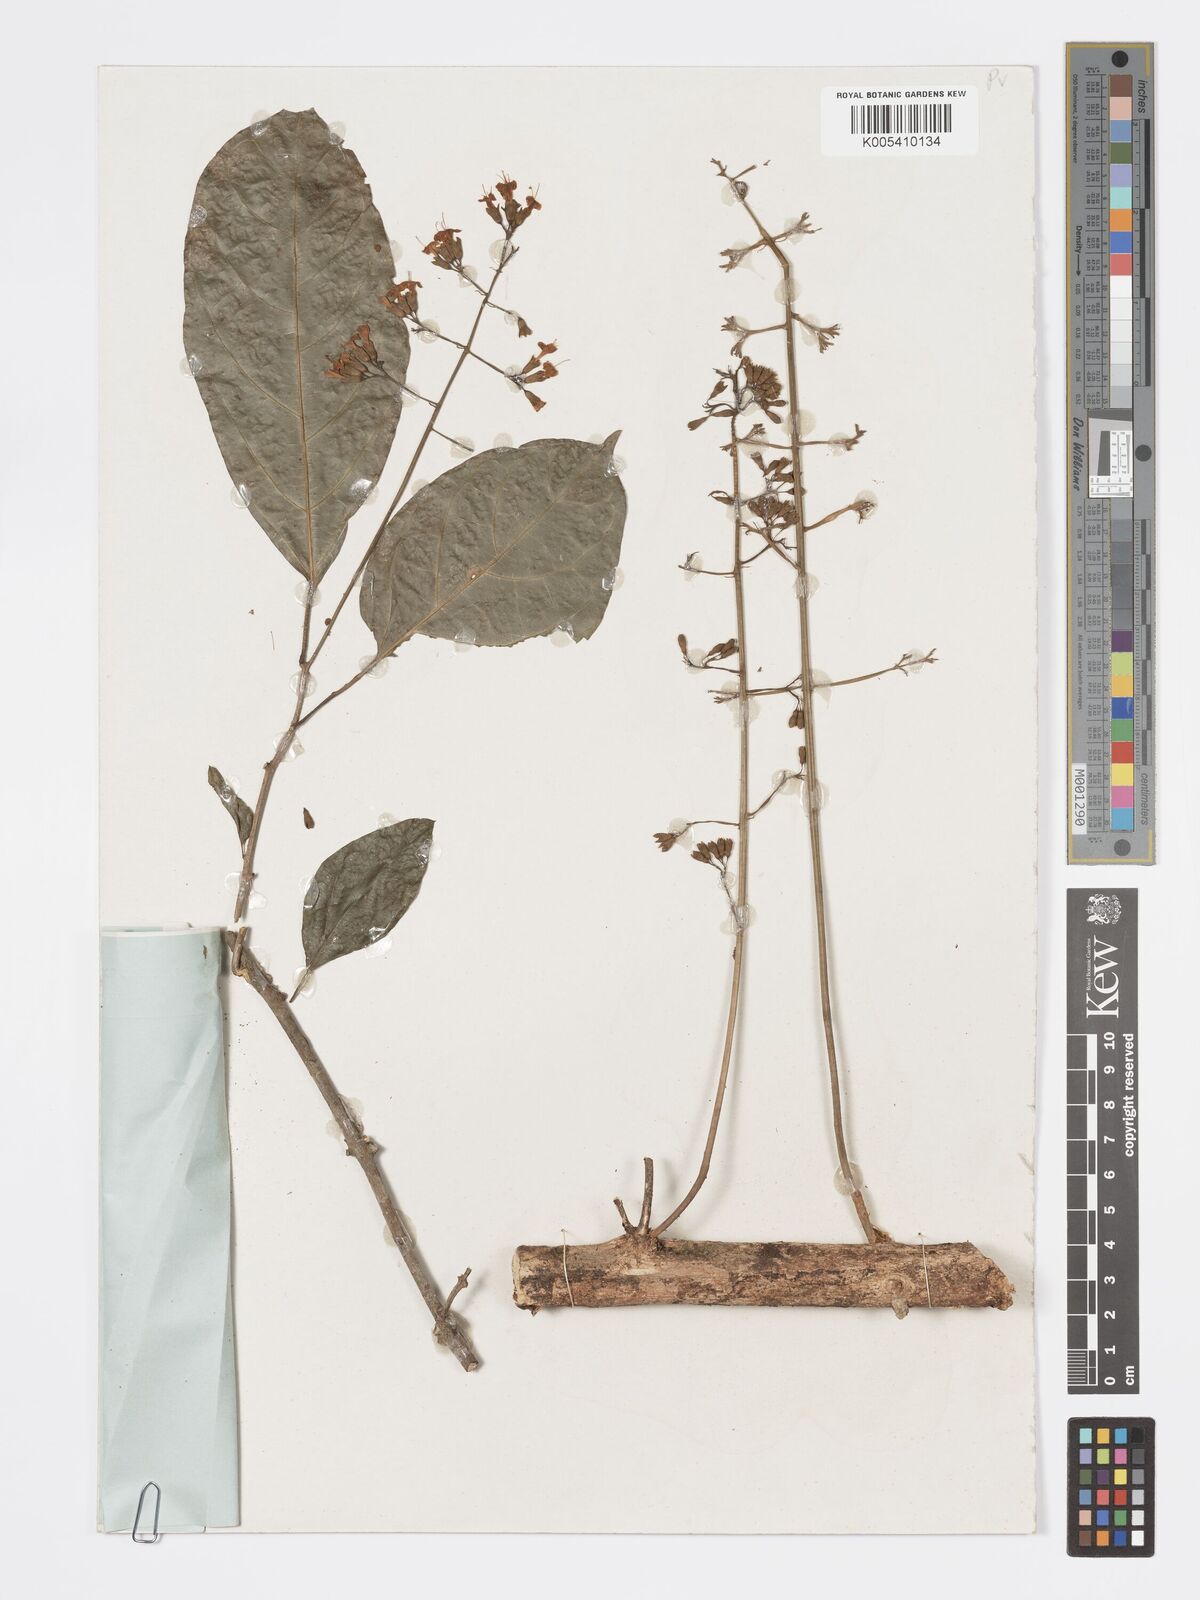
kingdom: Plantae
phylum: Tracheophyta
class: Magnoliopsida
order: Lamiales
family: Lamiaceae
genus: Clerodendrum
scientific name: Clerodendrum silvanum
